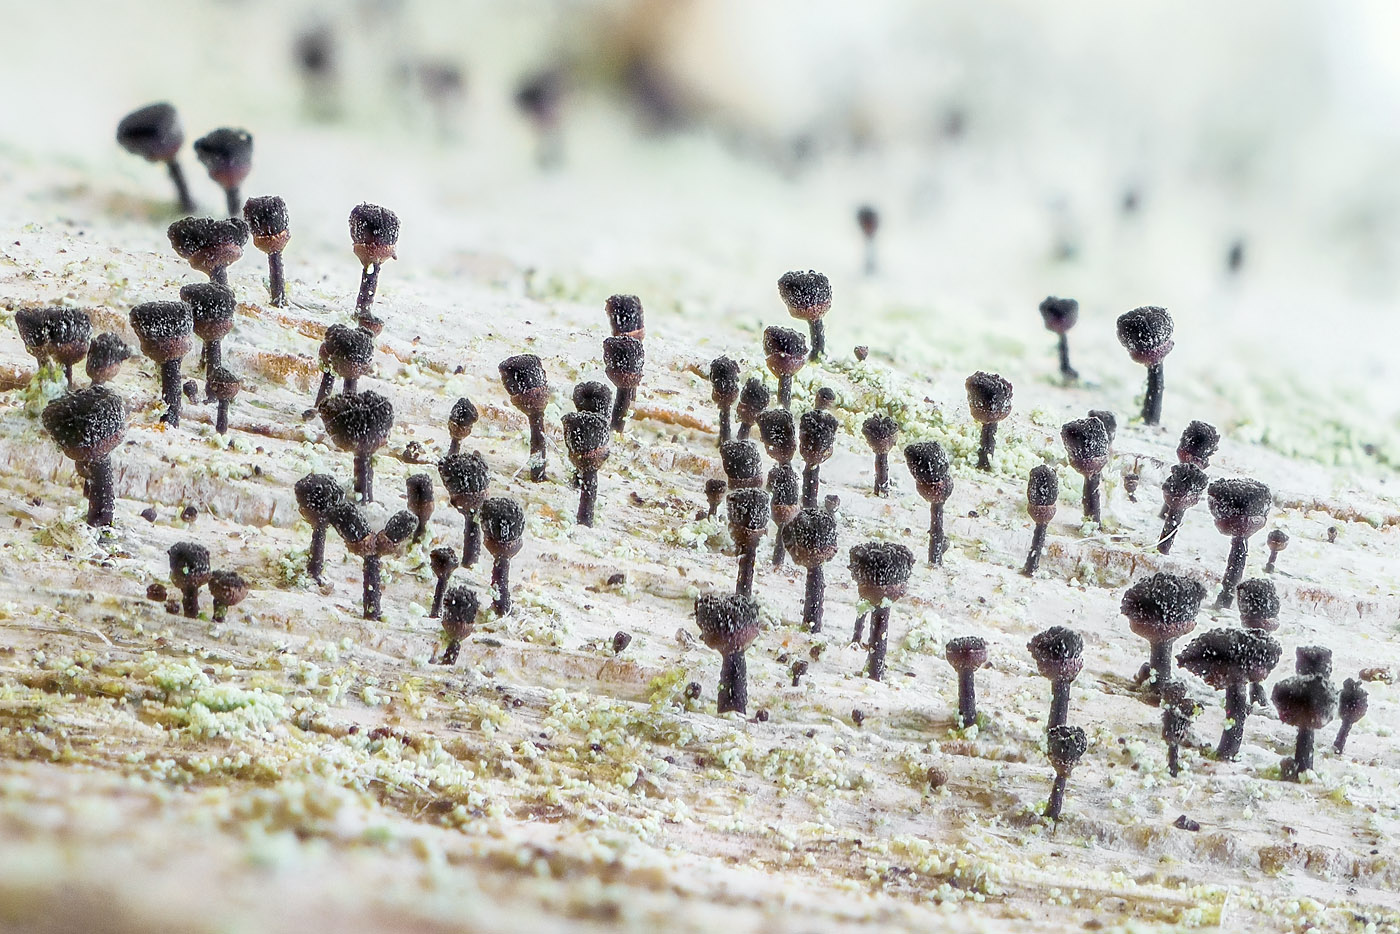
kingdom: Fungi
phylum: Ascomycota
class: Lecanoromycetes
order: Caliciales
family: Caliciaceae
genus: Calicium
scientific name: Calicium salicinum
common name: persoons nålelav
